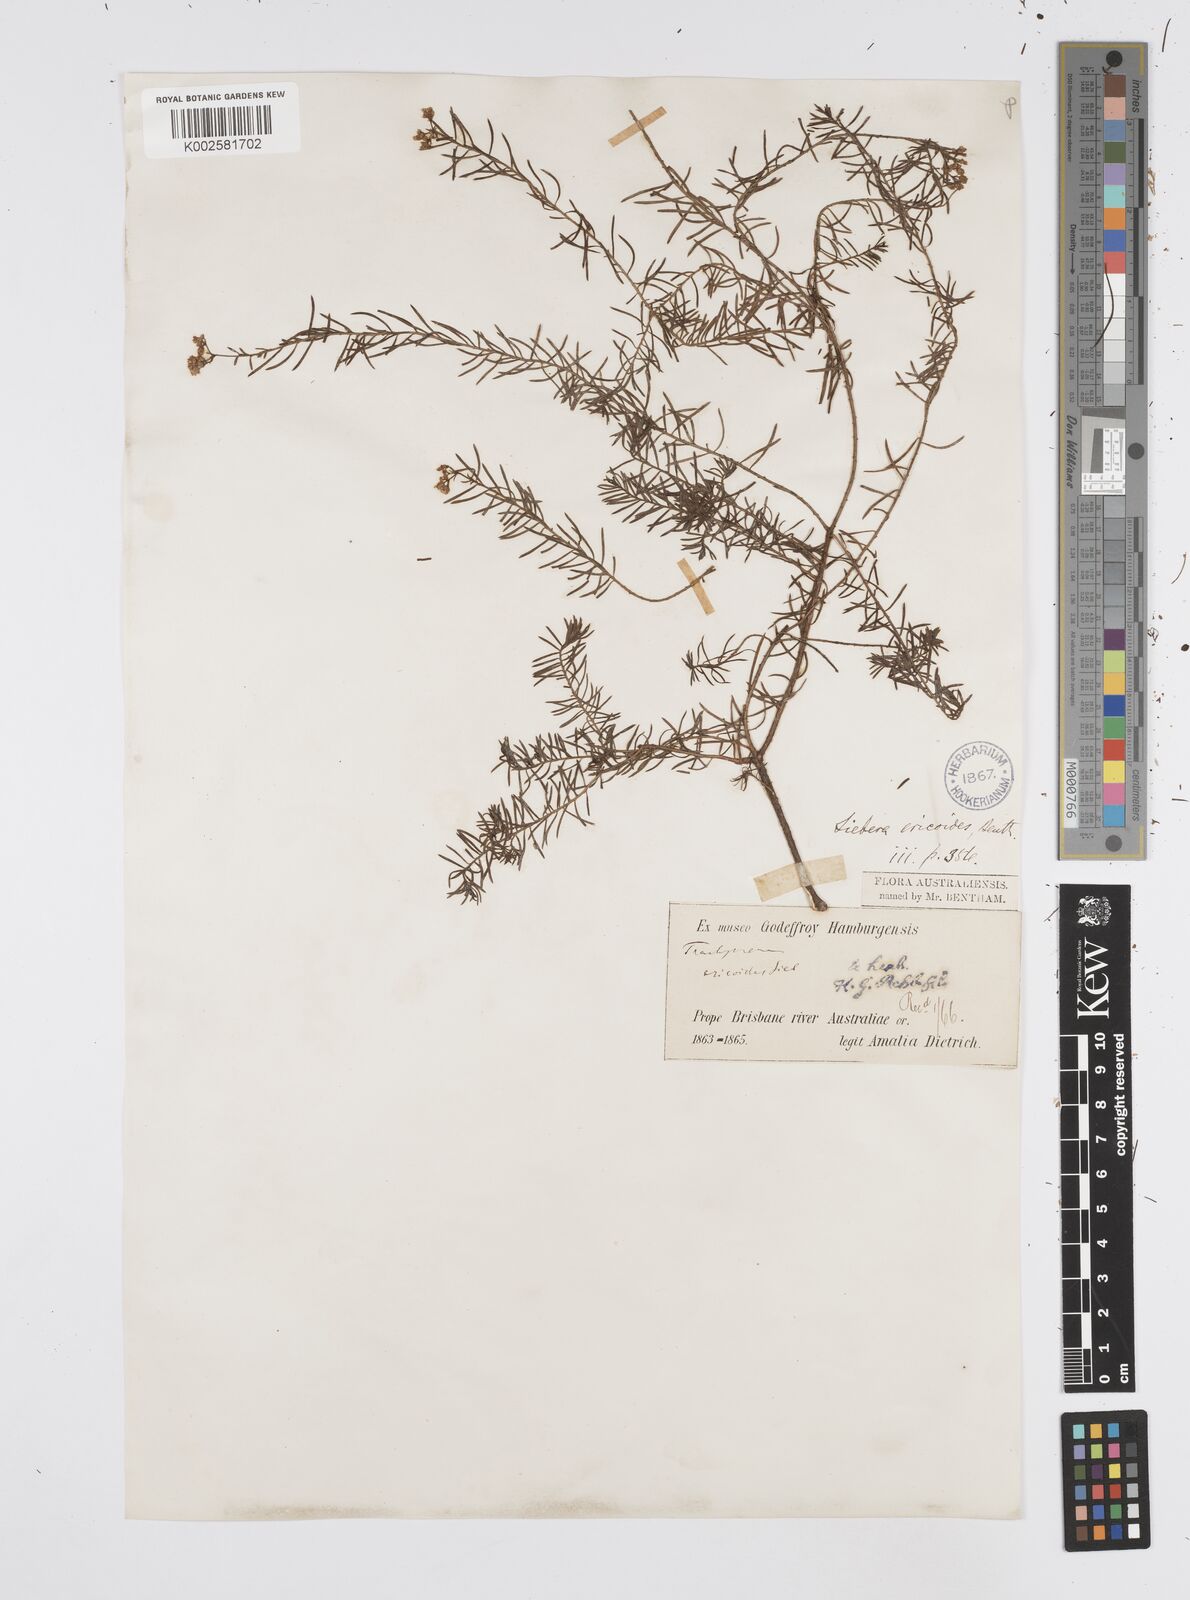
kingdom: Plantae
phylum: Tracheophyta
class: Magnoliopsida
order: Apiales
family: Apiaceae
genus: Platysace
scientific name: Platysace ericoides
